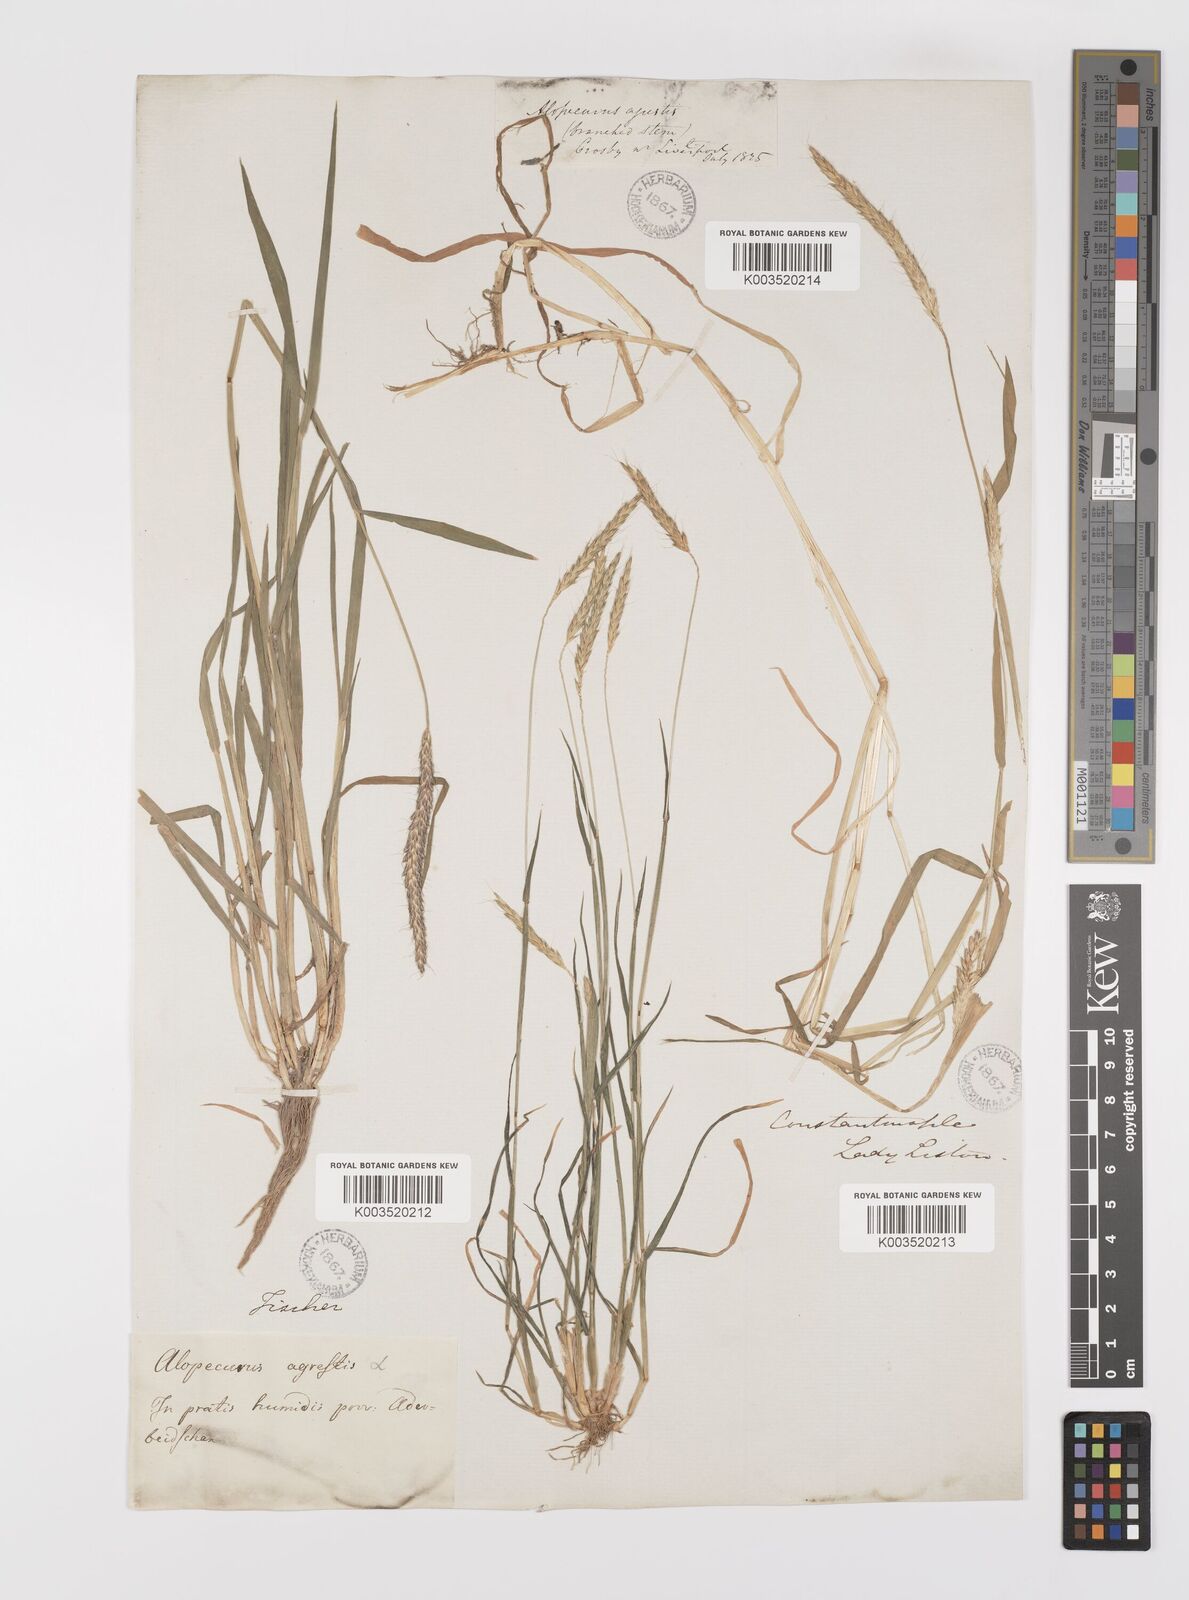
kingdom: Plantae
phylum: Tracheophyta
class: Liliopsida
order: Poales
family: Poaceae
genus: Alopecurus
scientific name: Alopecurus myosuroides
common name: Black-grass
